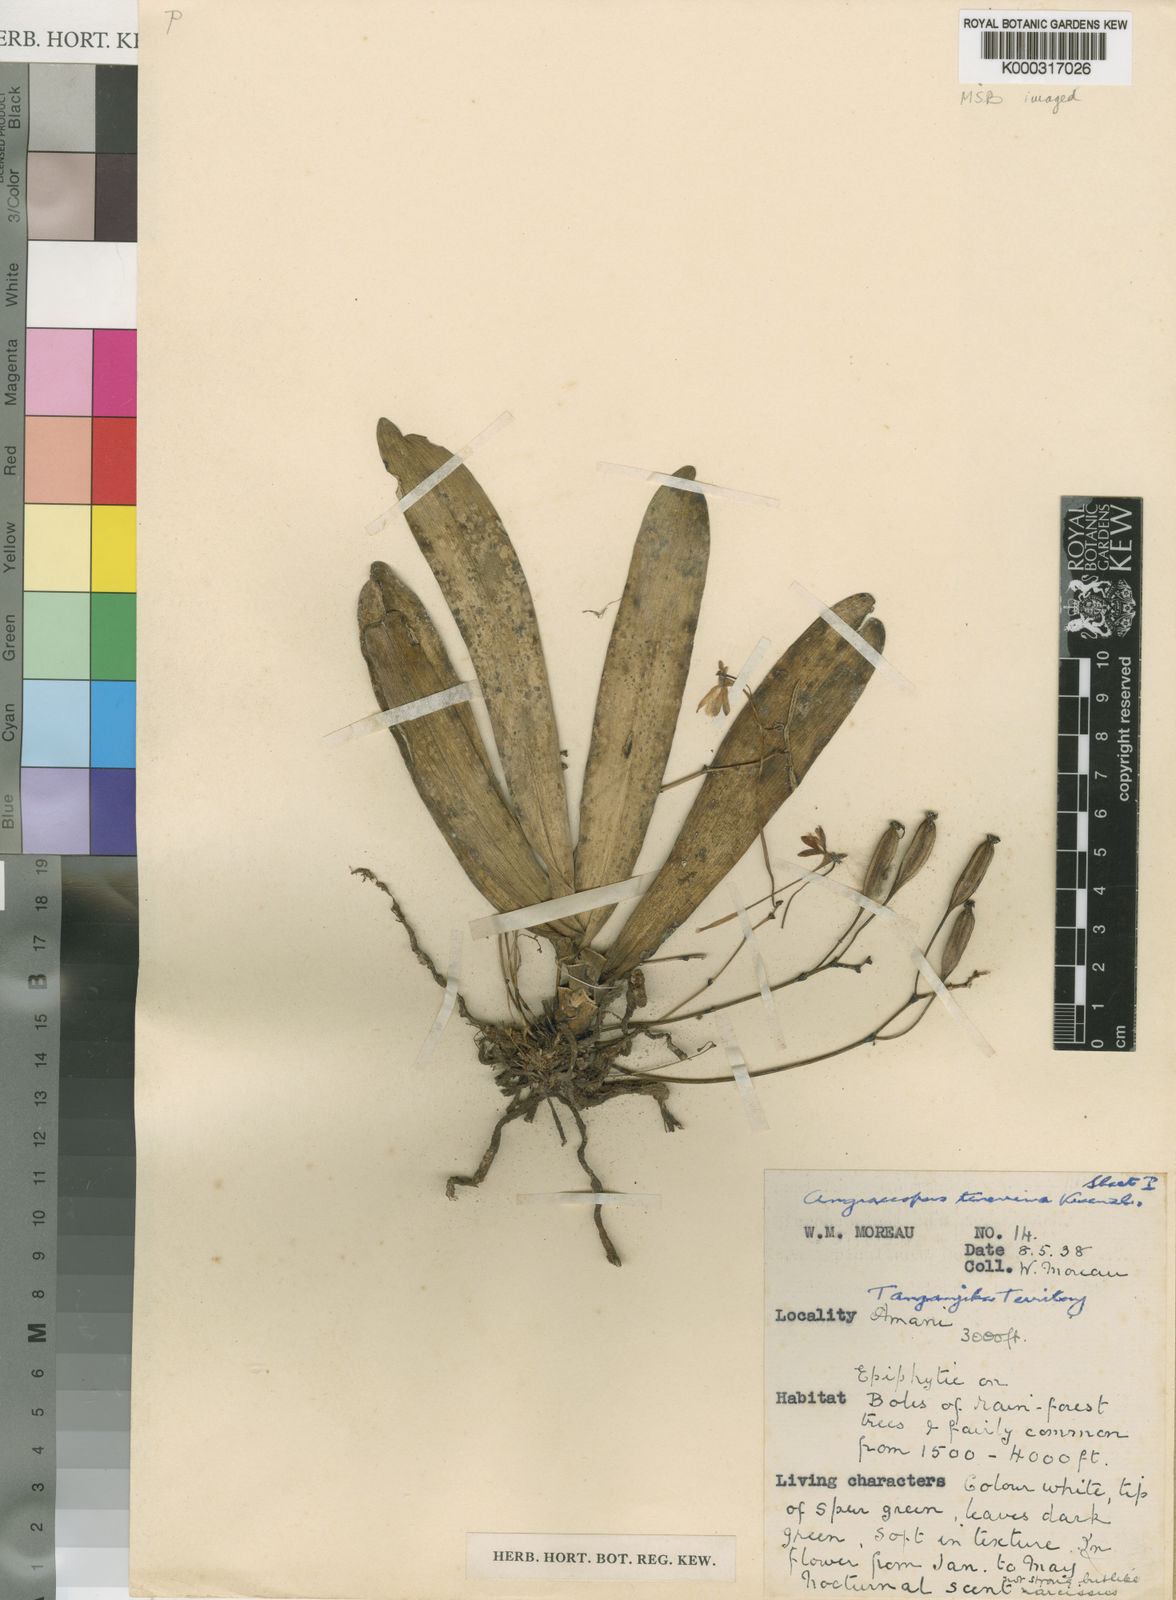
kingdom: Plantae
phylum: Tracheophyta
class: Liliopsida
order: Asparagales
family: Orchidaceae
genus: Angraecopsis
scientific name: Angraecopsis tenerrima
